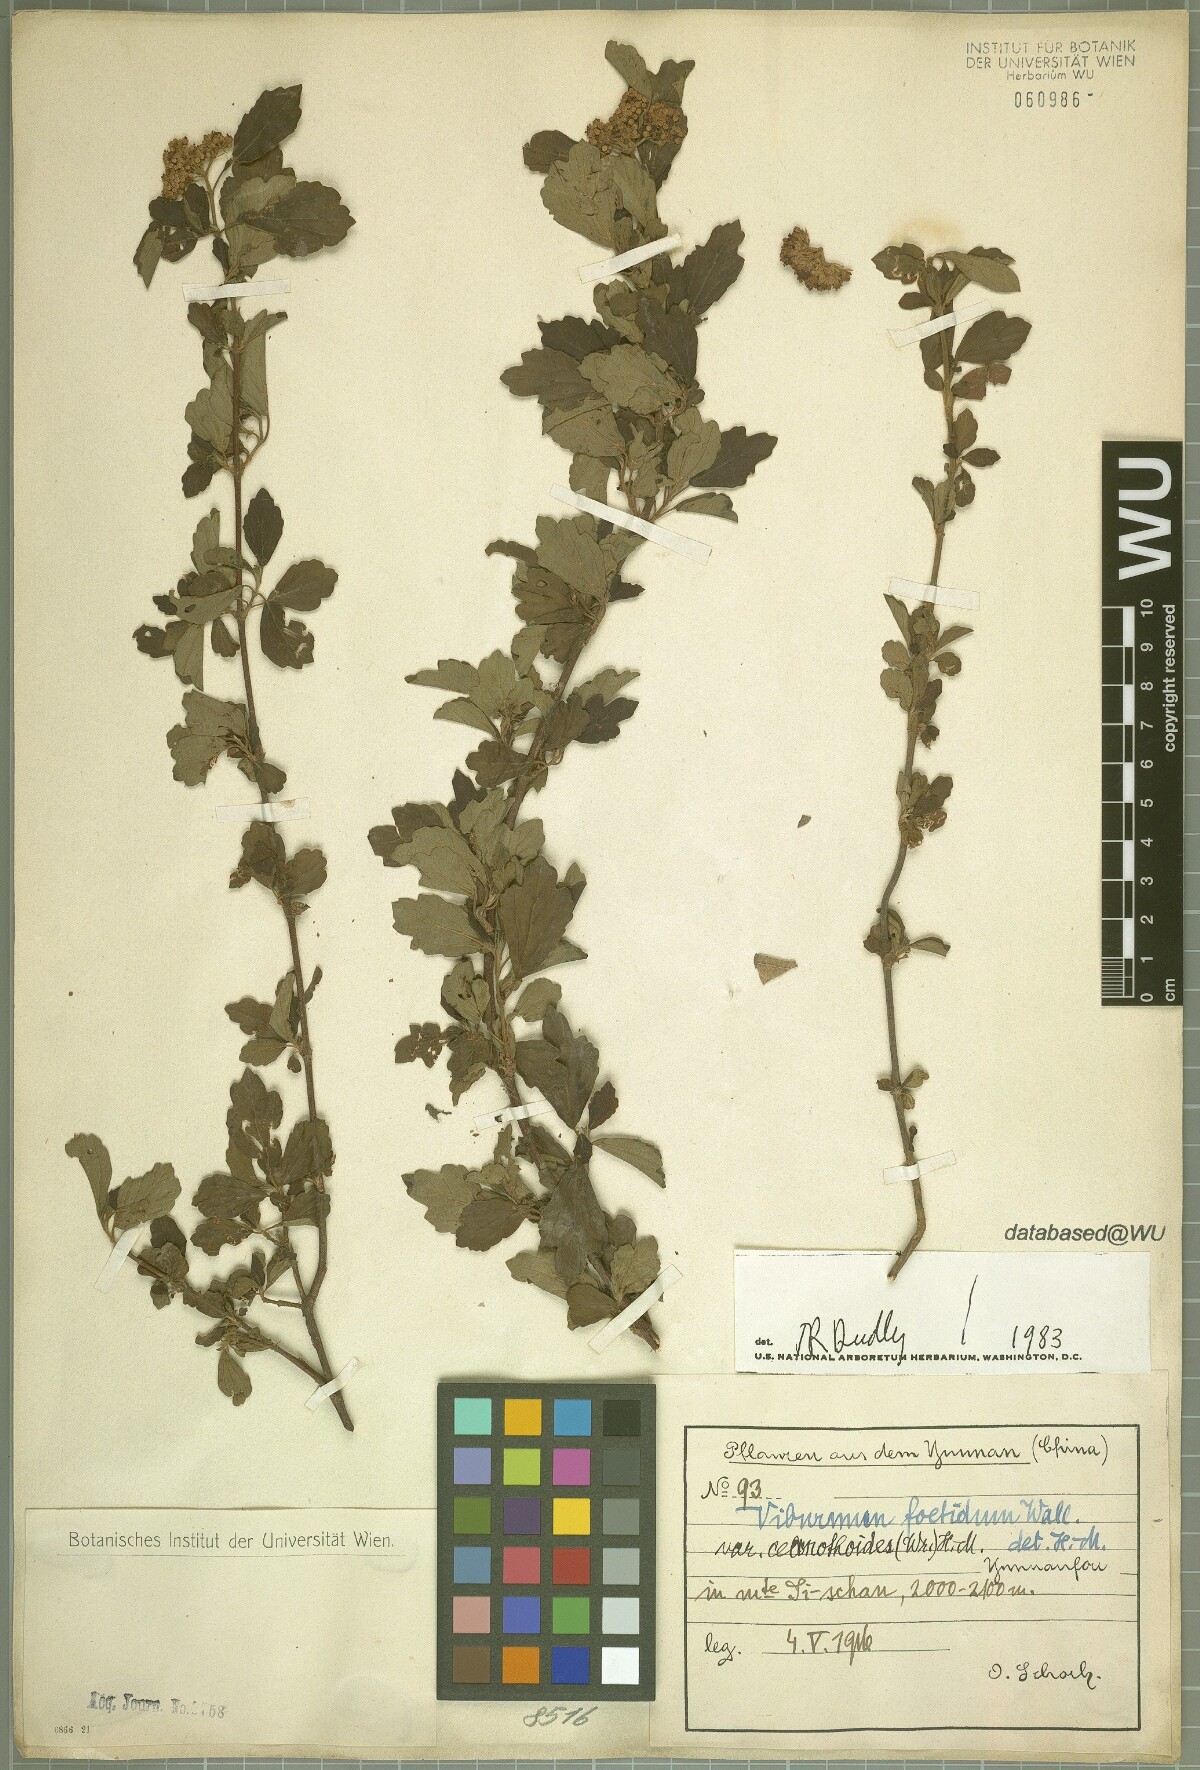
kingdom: Plantae
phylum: Tracheophyta
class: Magnoliopsida
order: Dipsacales
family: Viburnaceae
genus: Viburnum
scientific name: Viburnum foetidum
